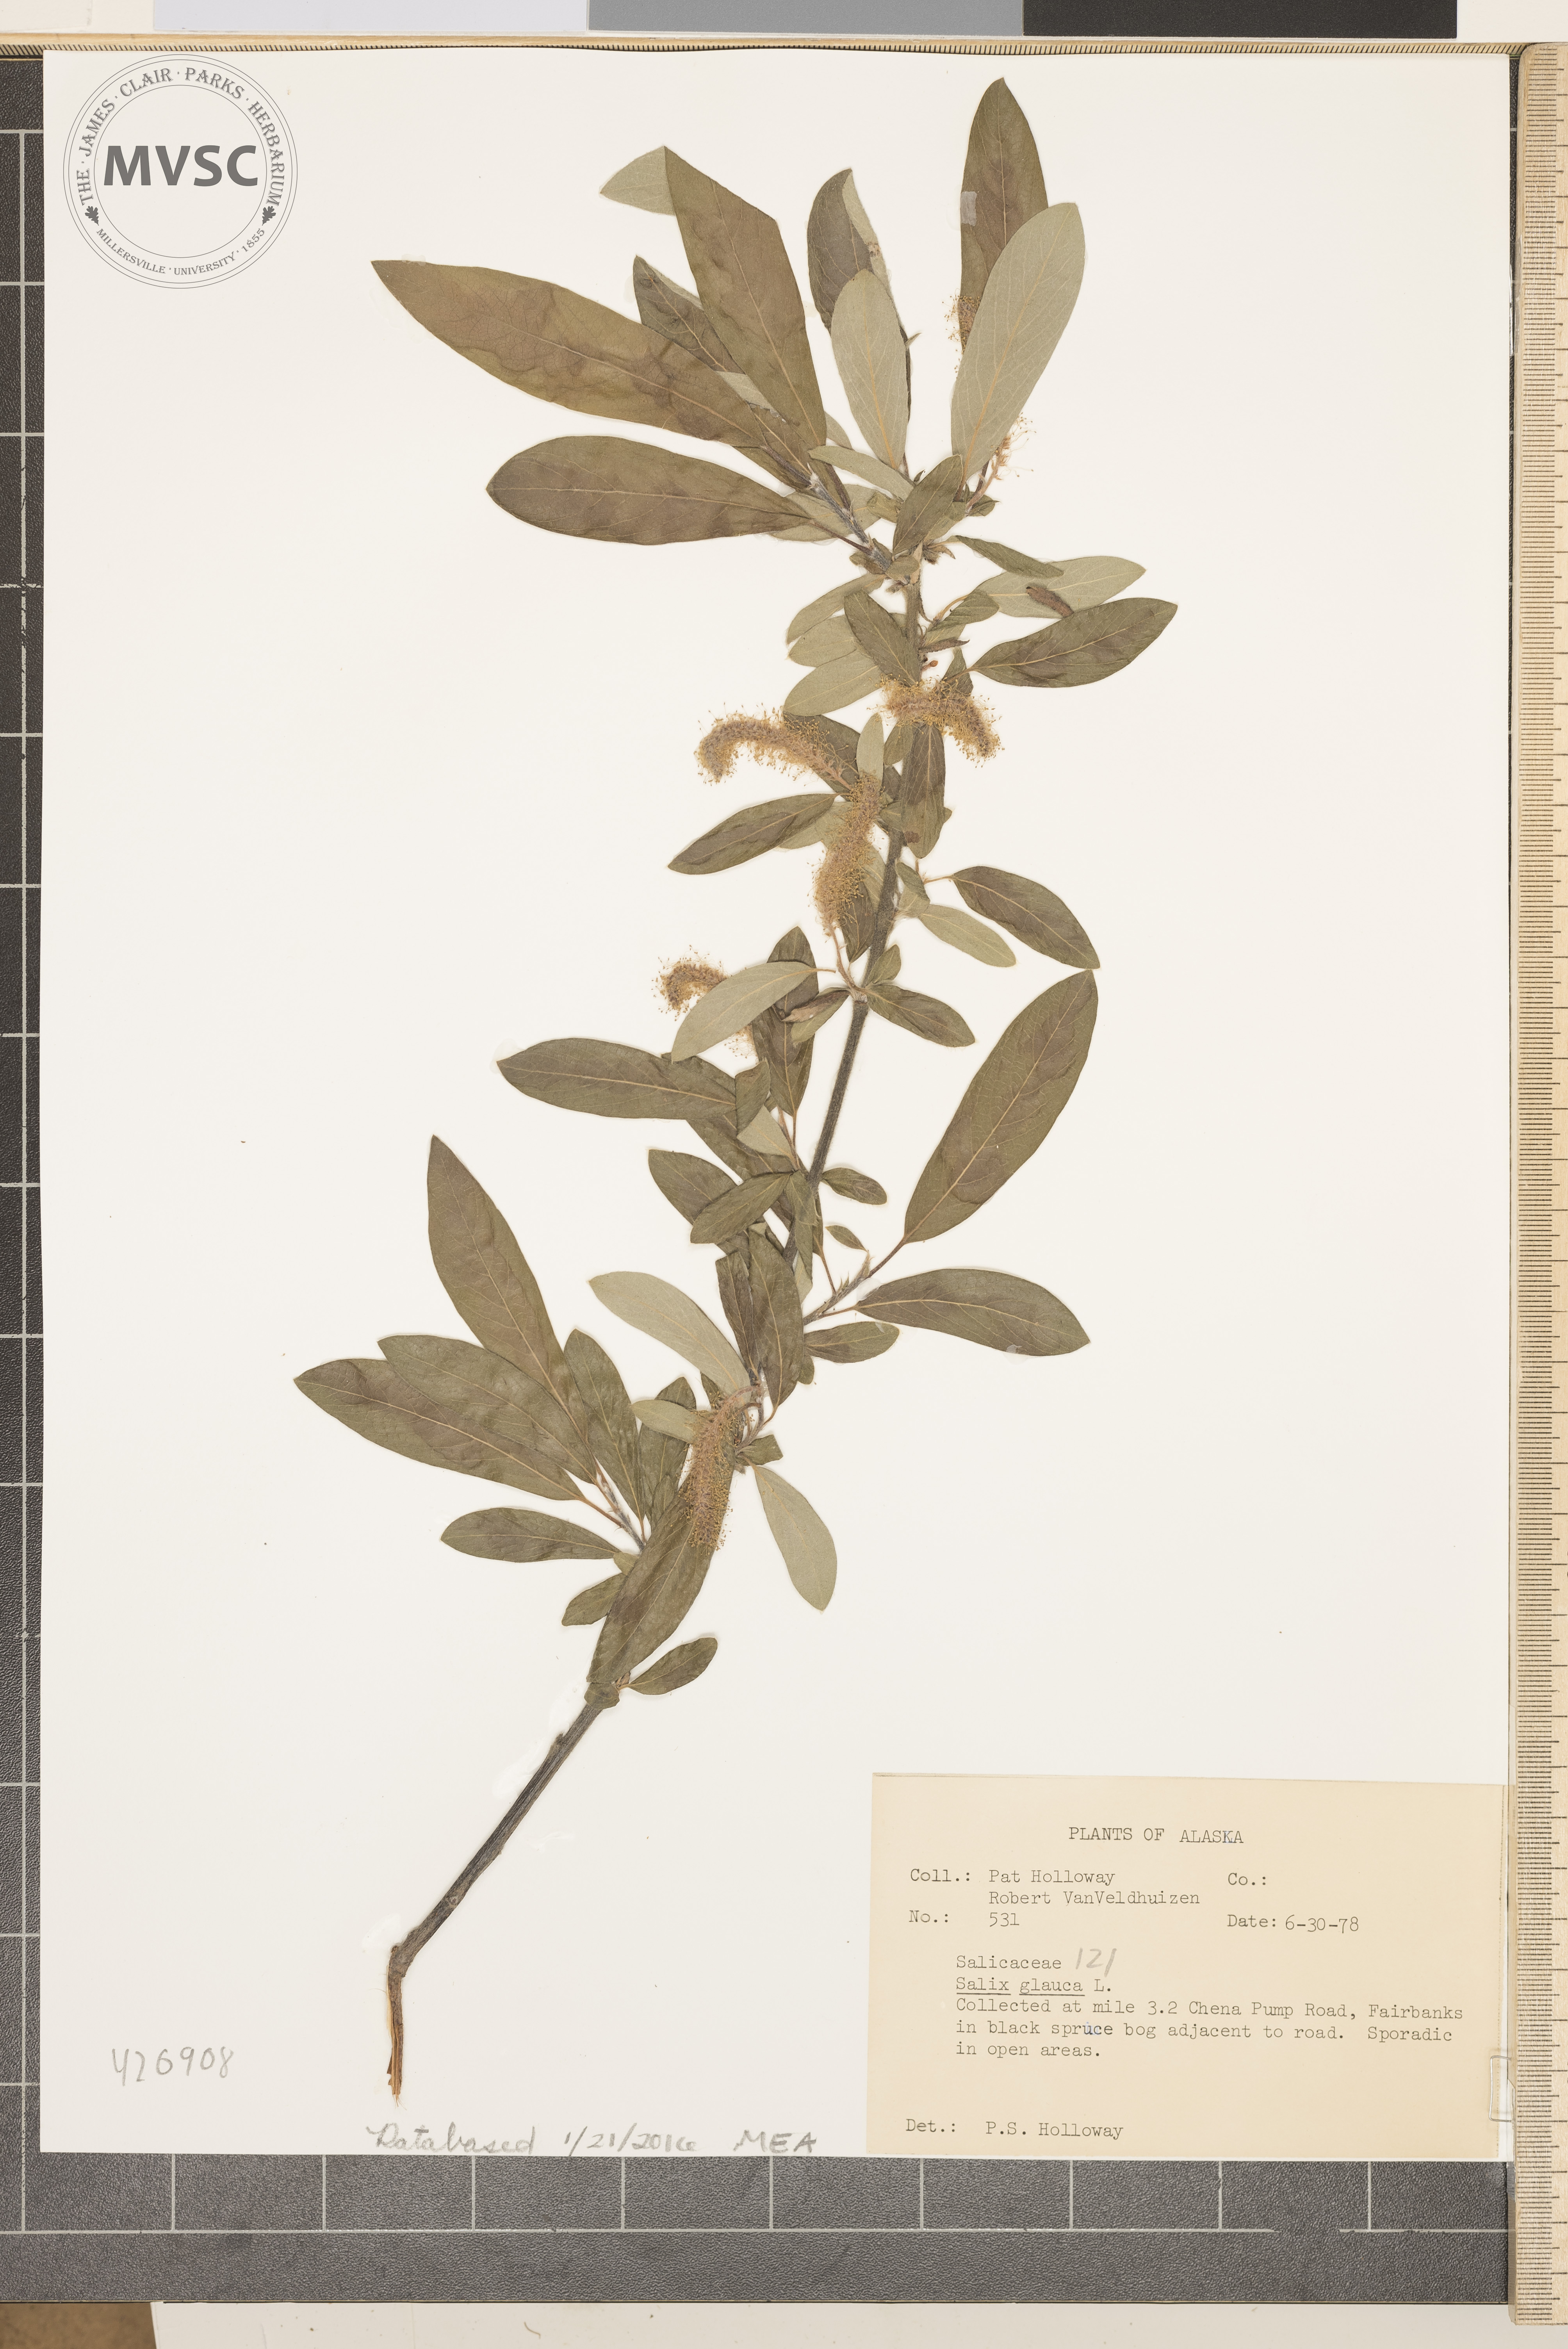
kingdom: Plantae
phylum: Tracheophyta
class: Magnoliopsida
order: Malpighiales
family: Salicaceae
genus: Salix
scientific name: Salix glauca
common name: White Willow
